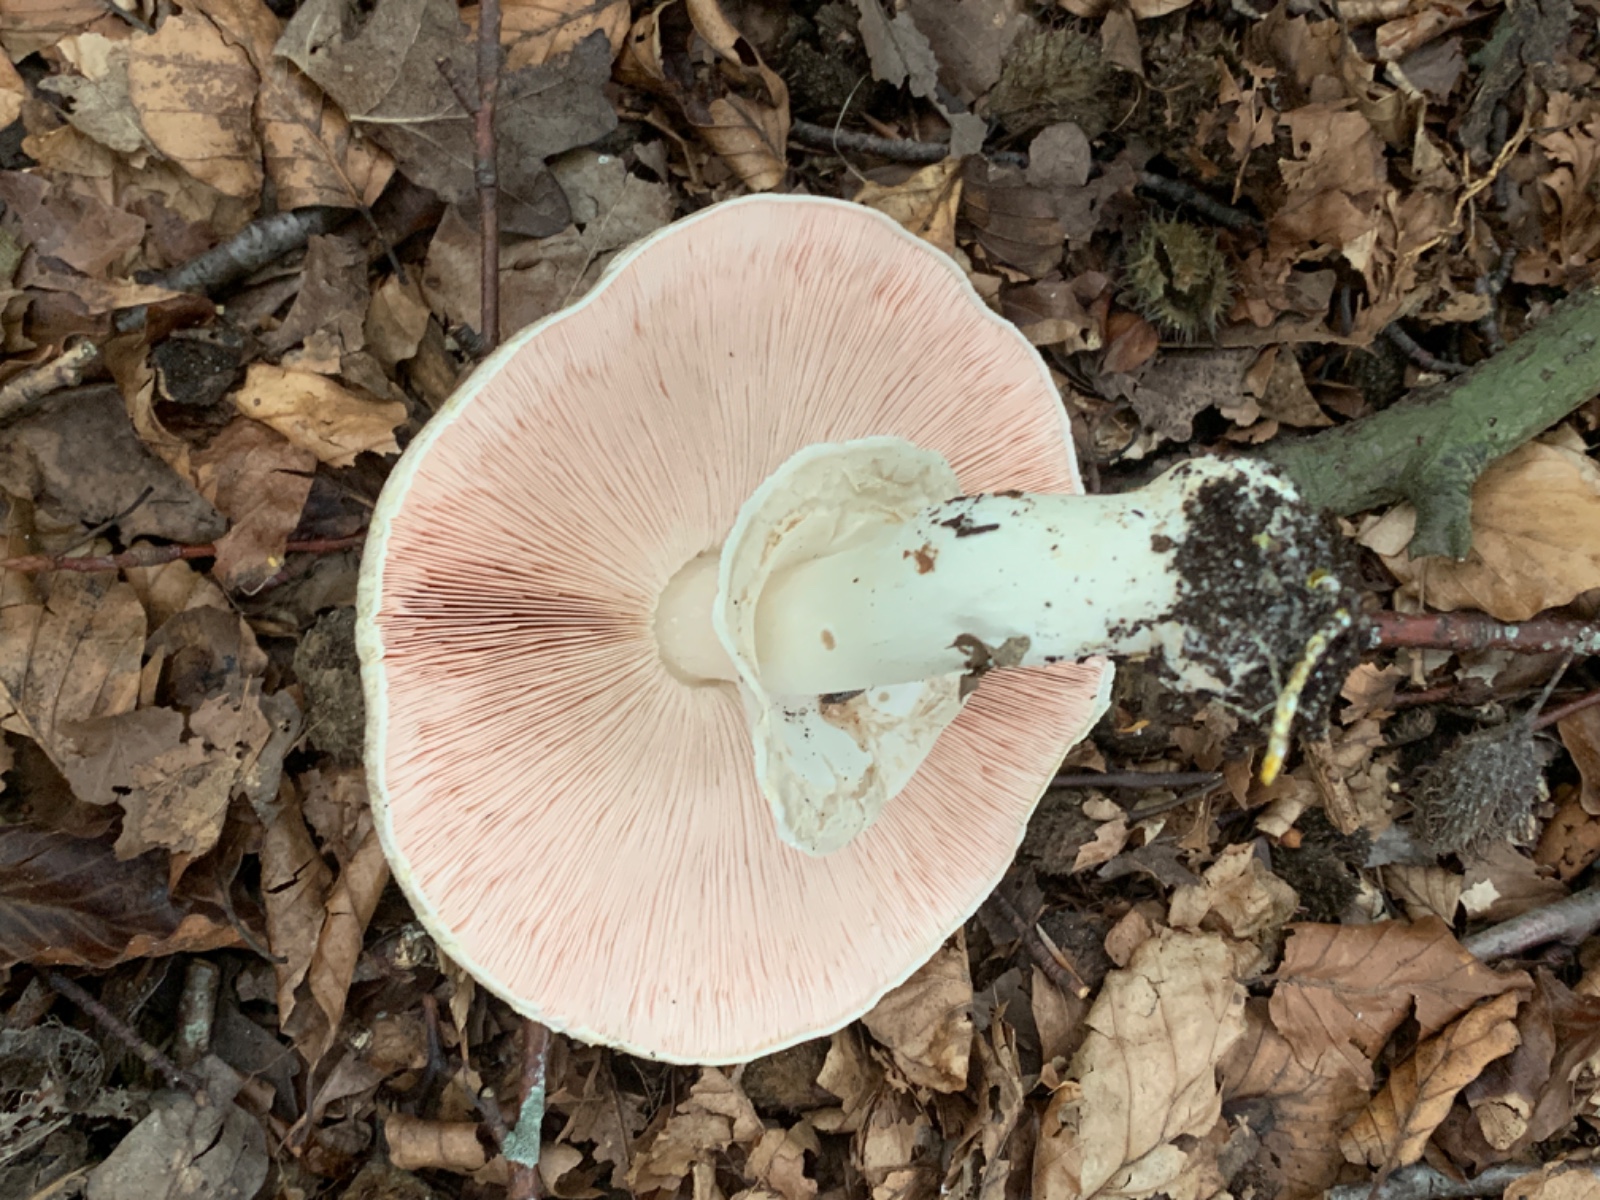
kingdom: Fungi
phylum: Basidiomycota
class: Agaricomycetes
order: Agaricales
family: Agaricaceae
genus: Agaricus
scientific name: Agaricus phaeolepidotus
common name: agerhøne-champignon
